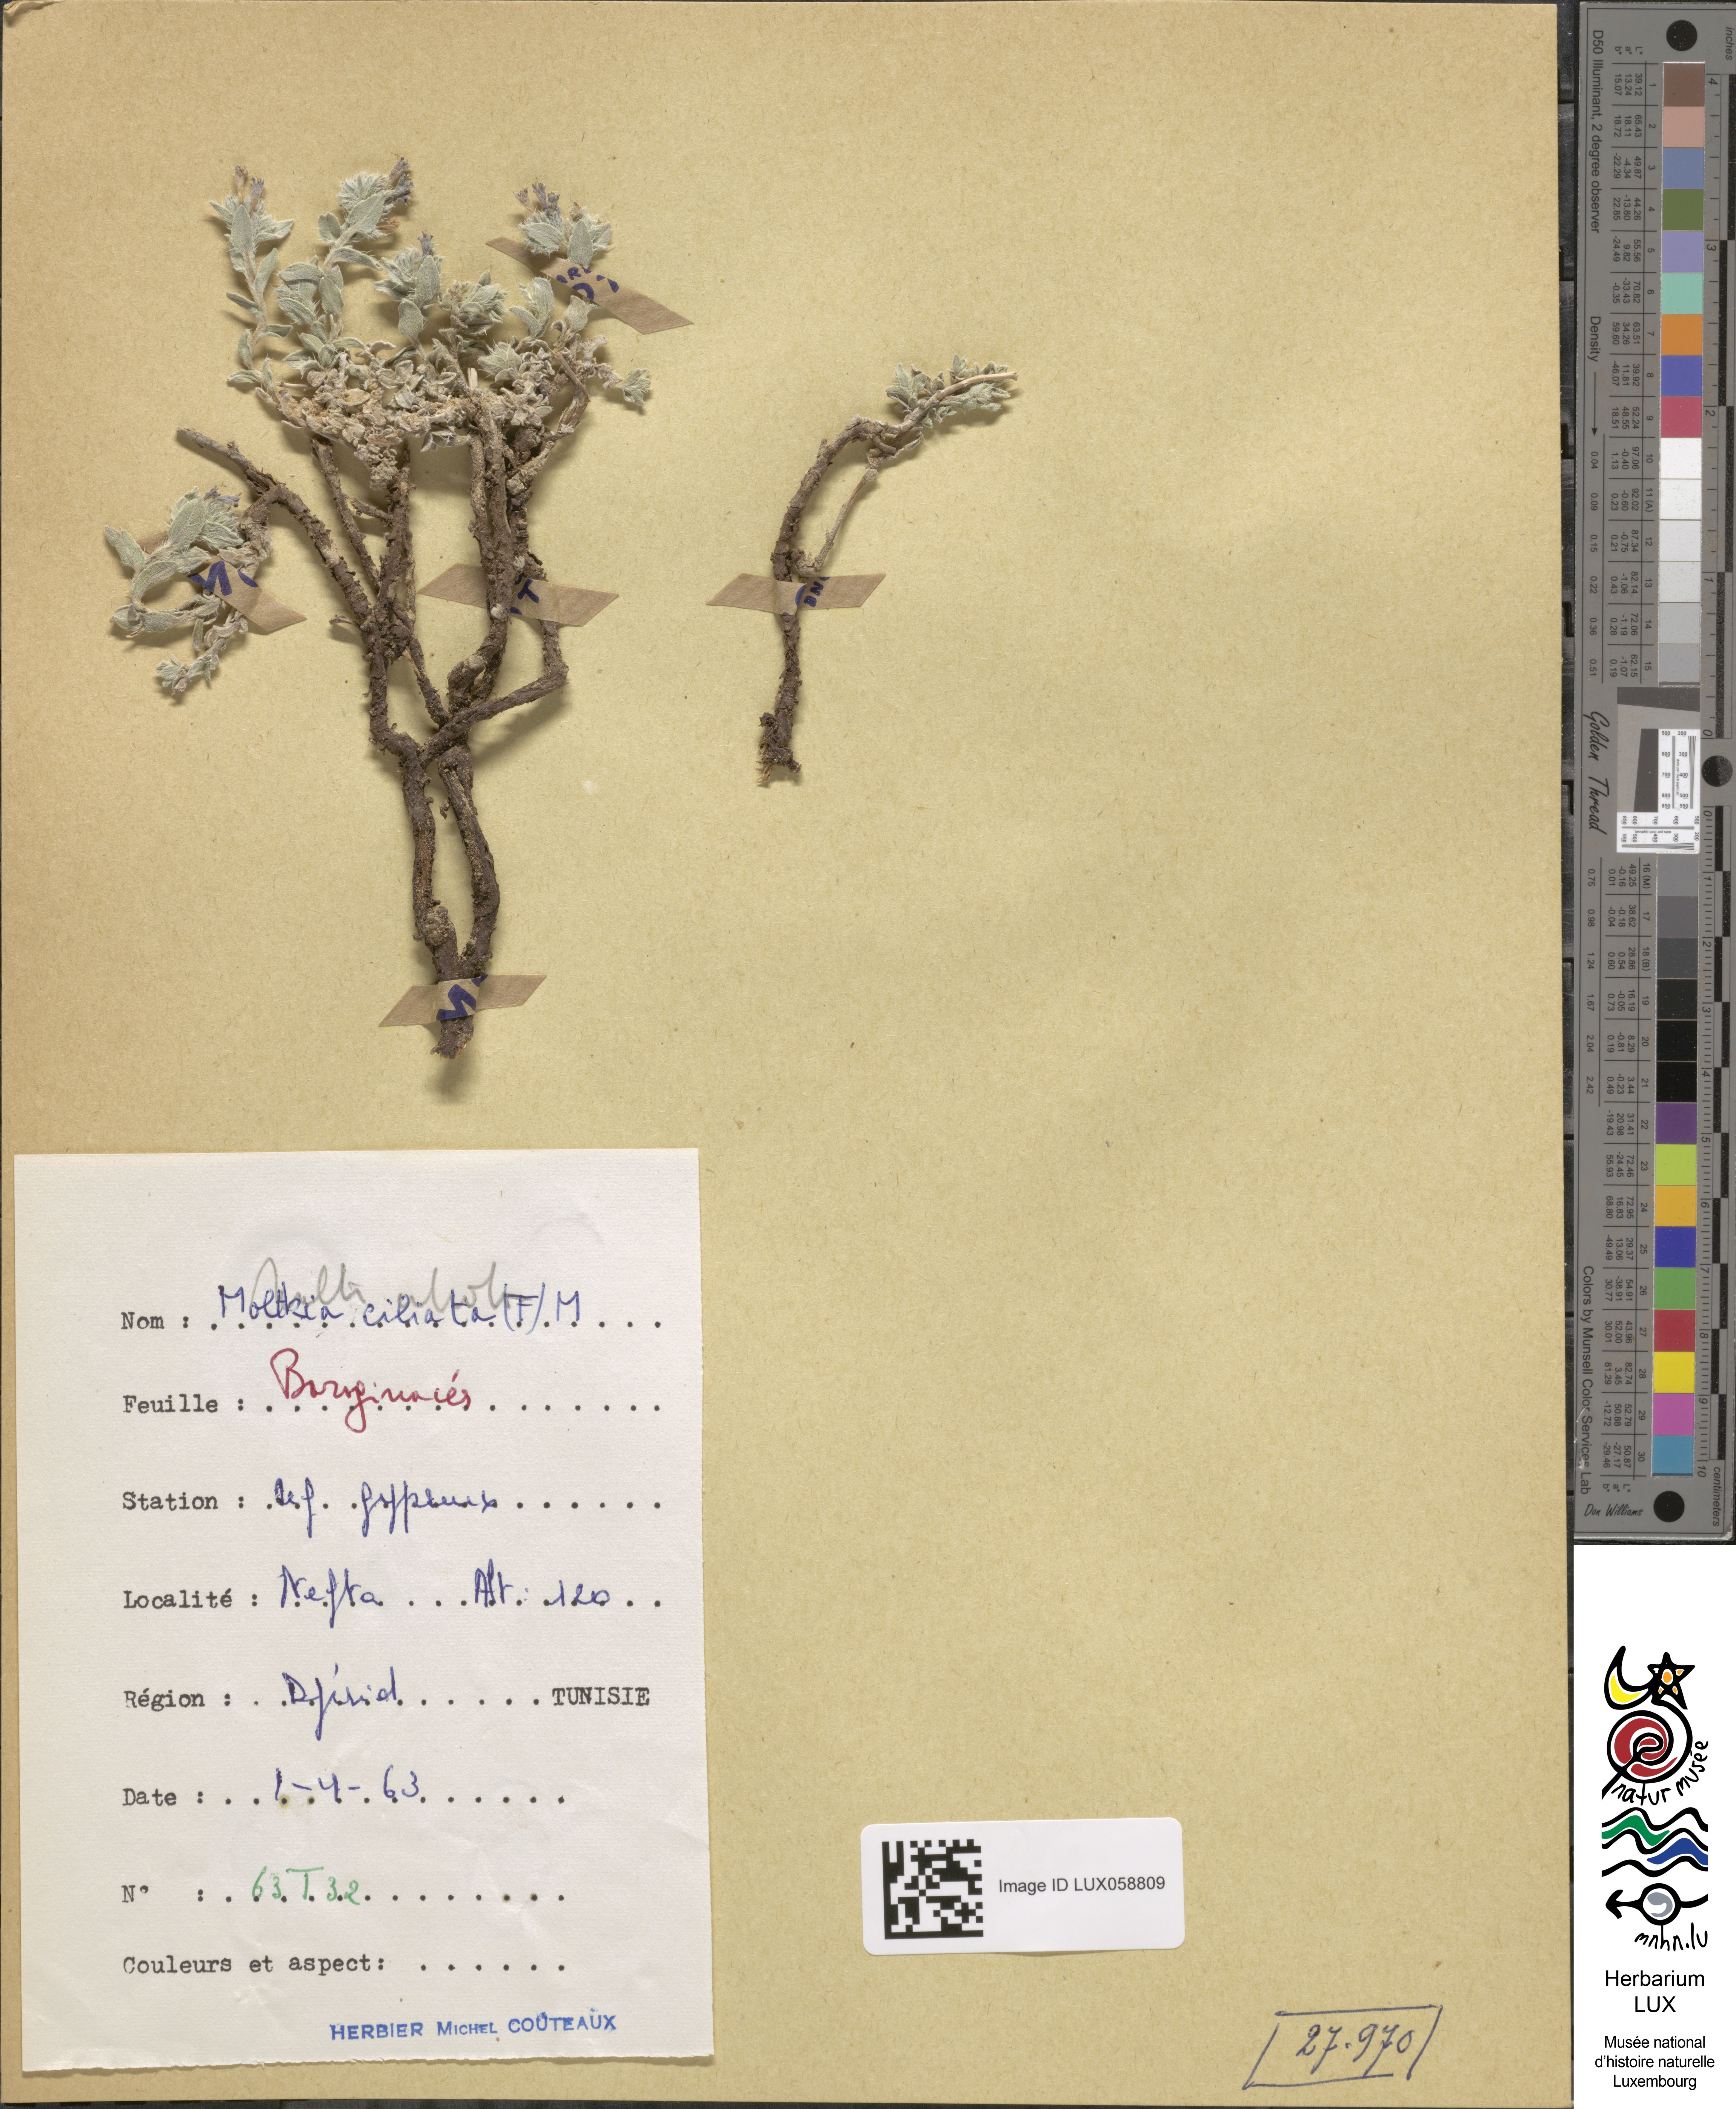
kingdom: Plantae
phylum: Tracheophyta
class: Magnoliopsida
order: Boraginales
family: Boraginaceae
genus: Moltkiopsis
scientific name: Moltkiopsis ciliata
